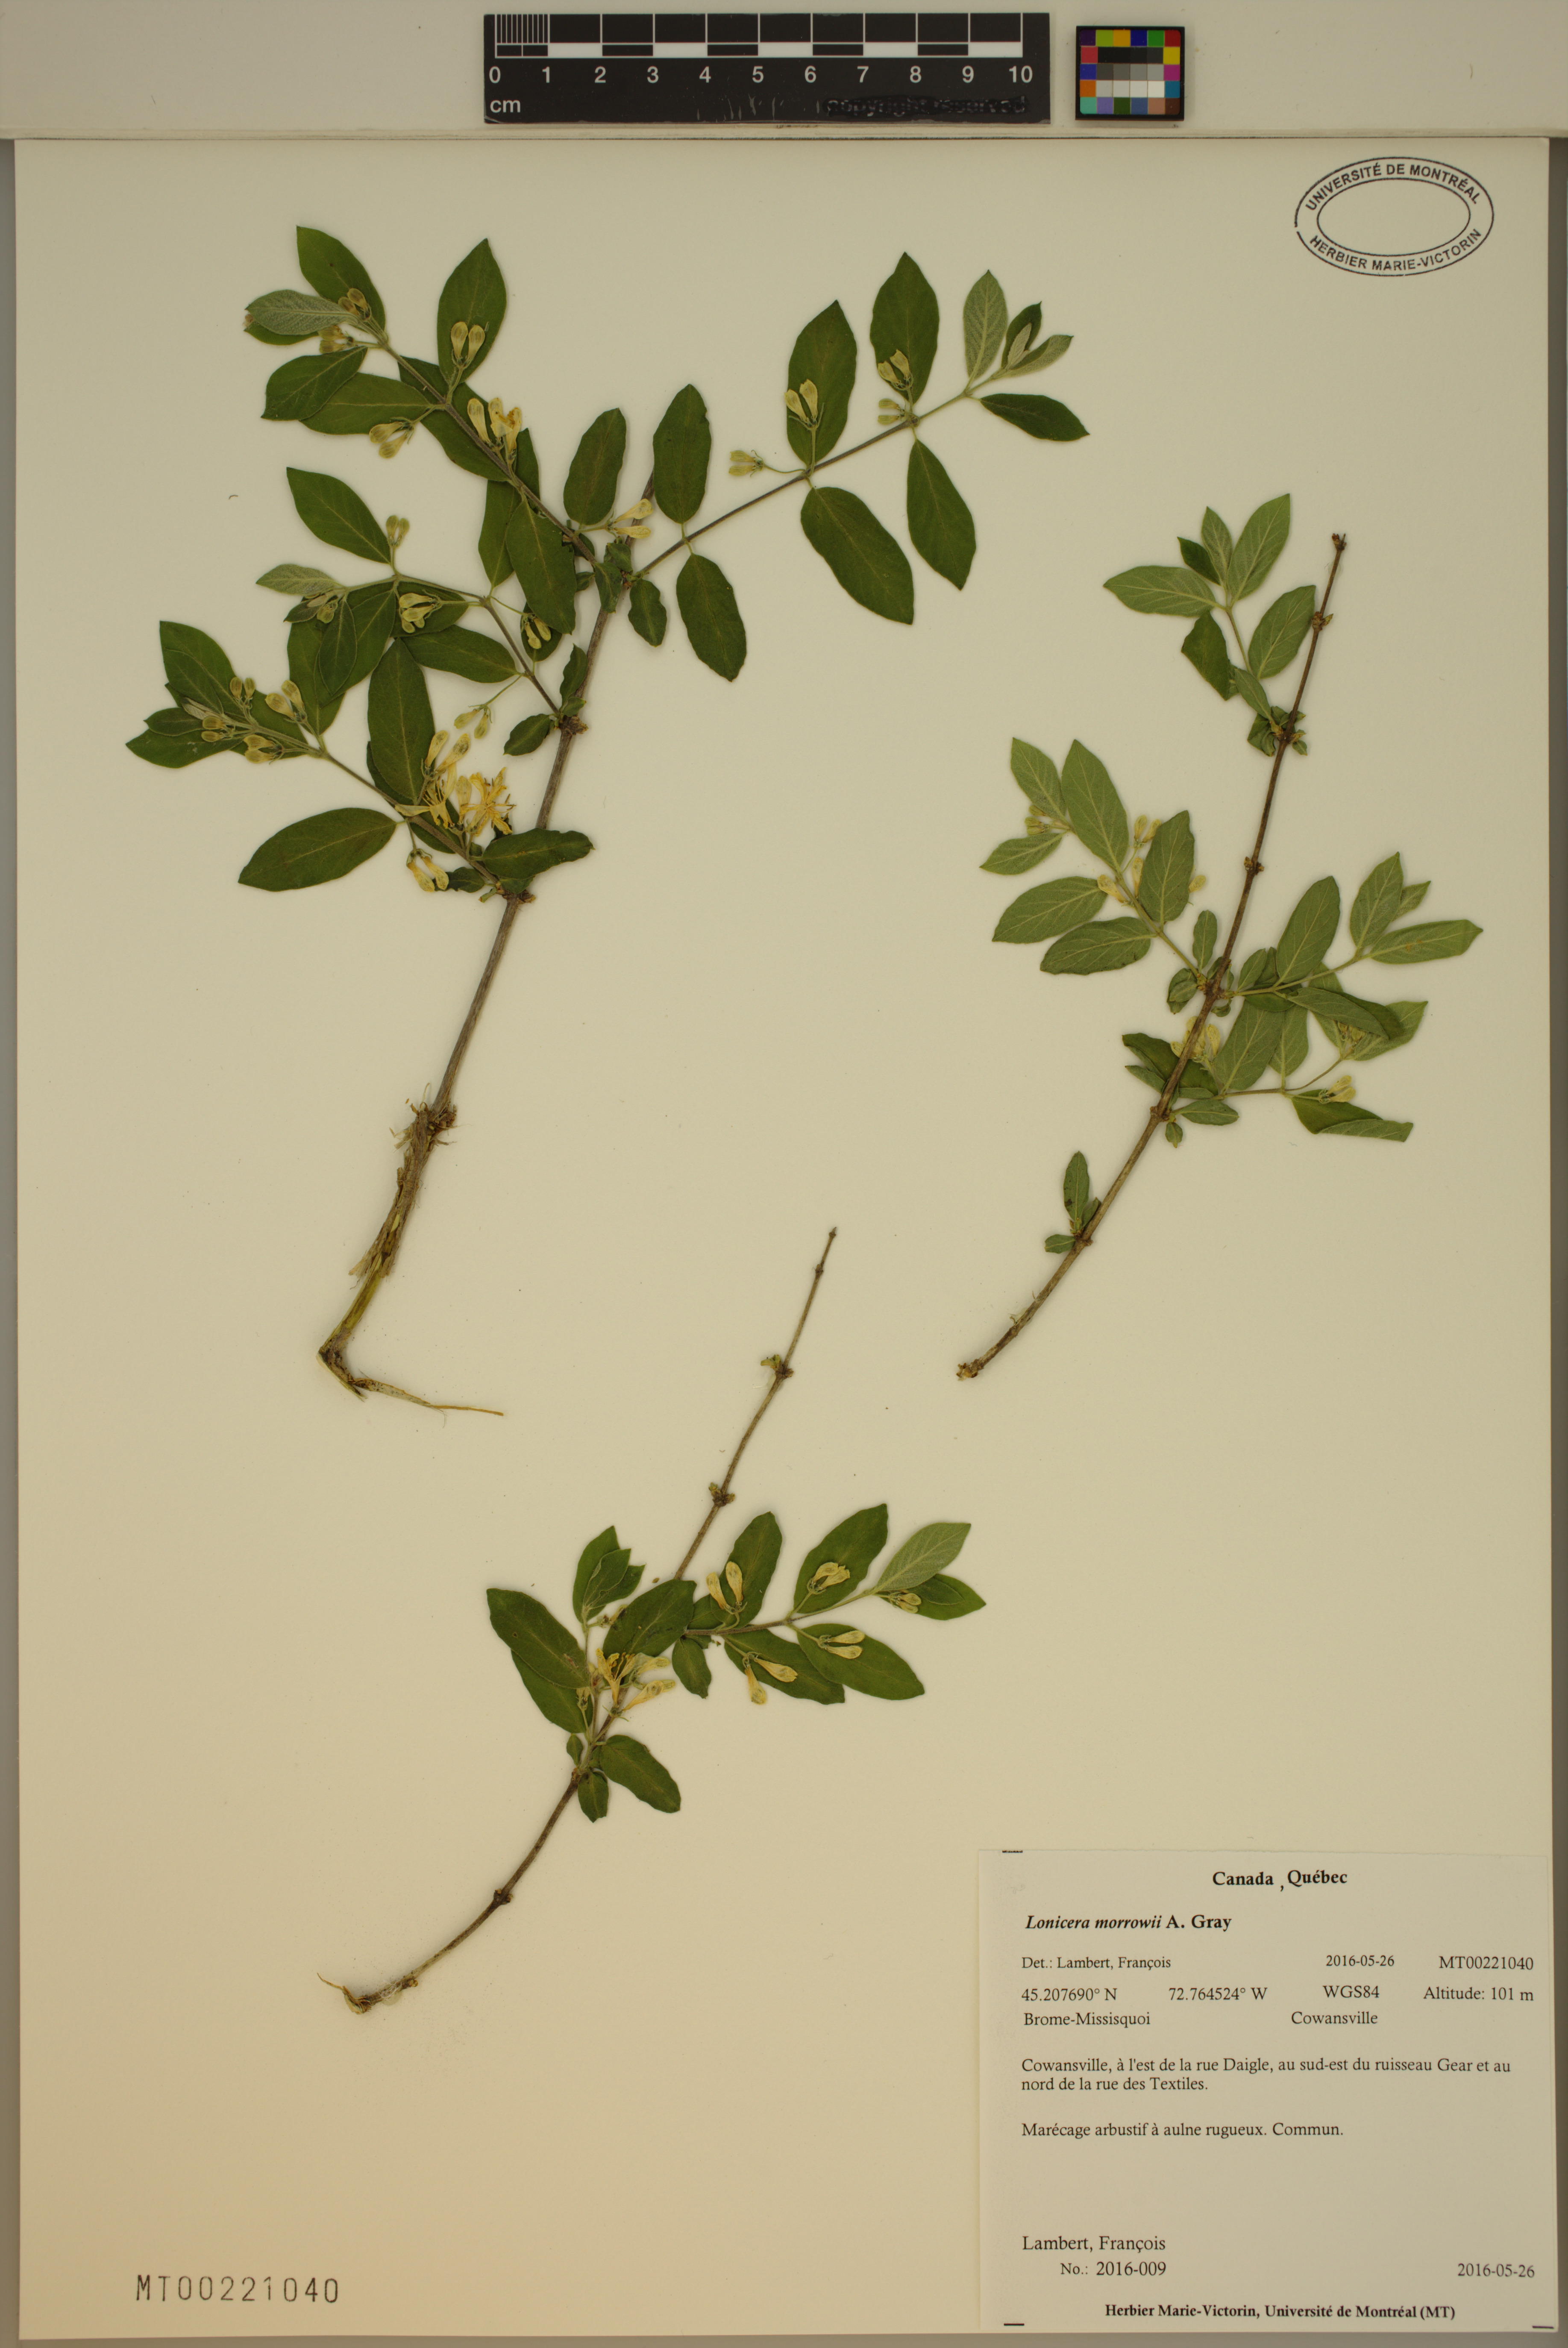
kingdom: Plantae
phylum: Tracheophyta
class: Magnoliopsida
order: Dipsacales
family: Caprifoliaceae
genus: Lonicera
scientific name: Lonicera morrowii
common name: Morrow's honeysuckle
